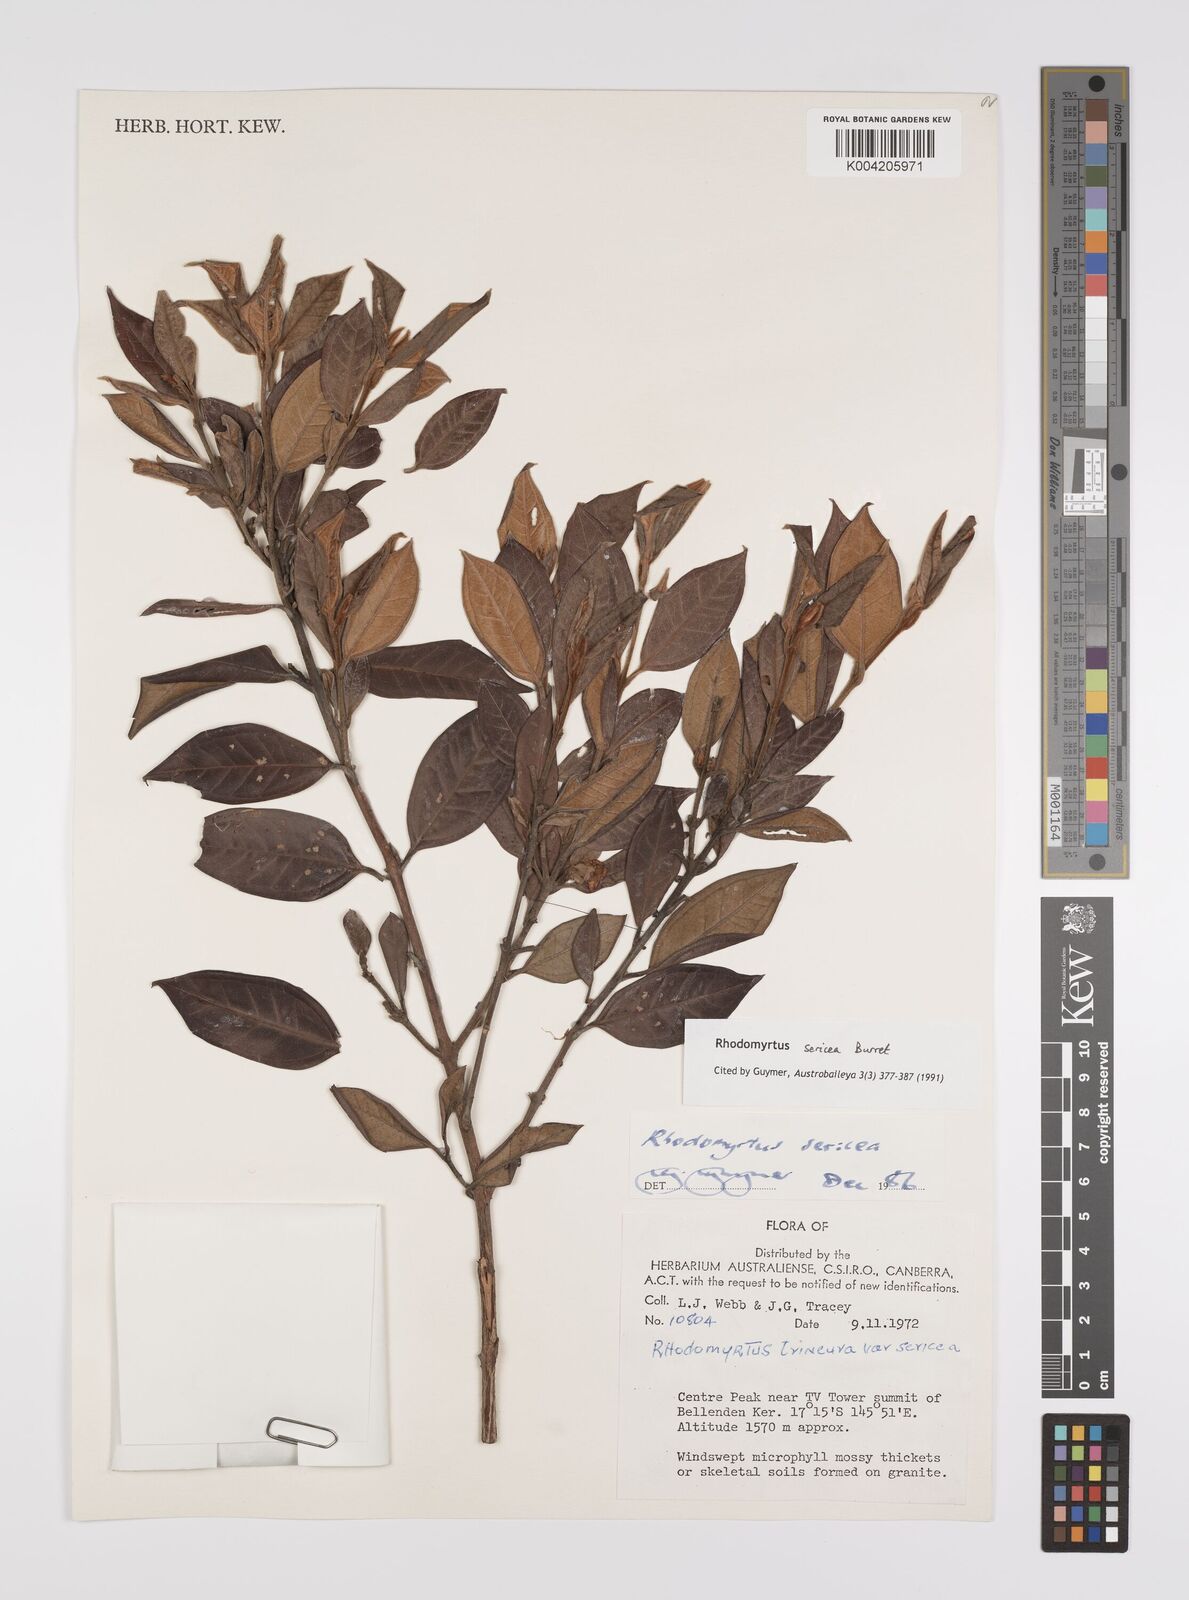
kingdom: Plantae
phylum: Tracheophyta
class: Magnoliopsida
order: Myrtales
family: Myrtaceae
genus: Rhodomyrtus
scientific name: Rhodomyrtus sericea
